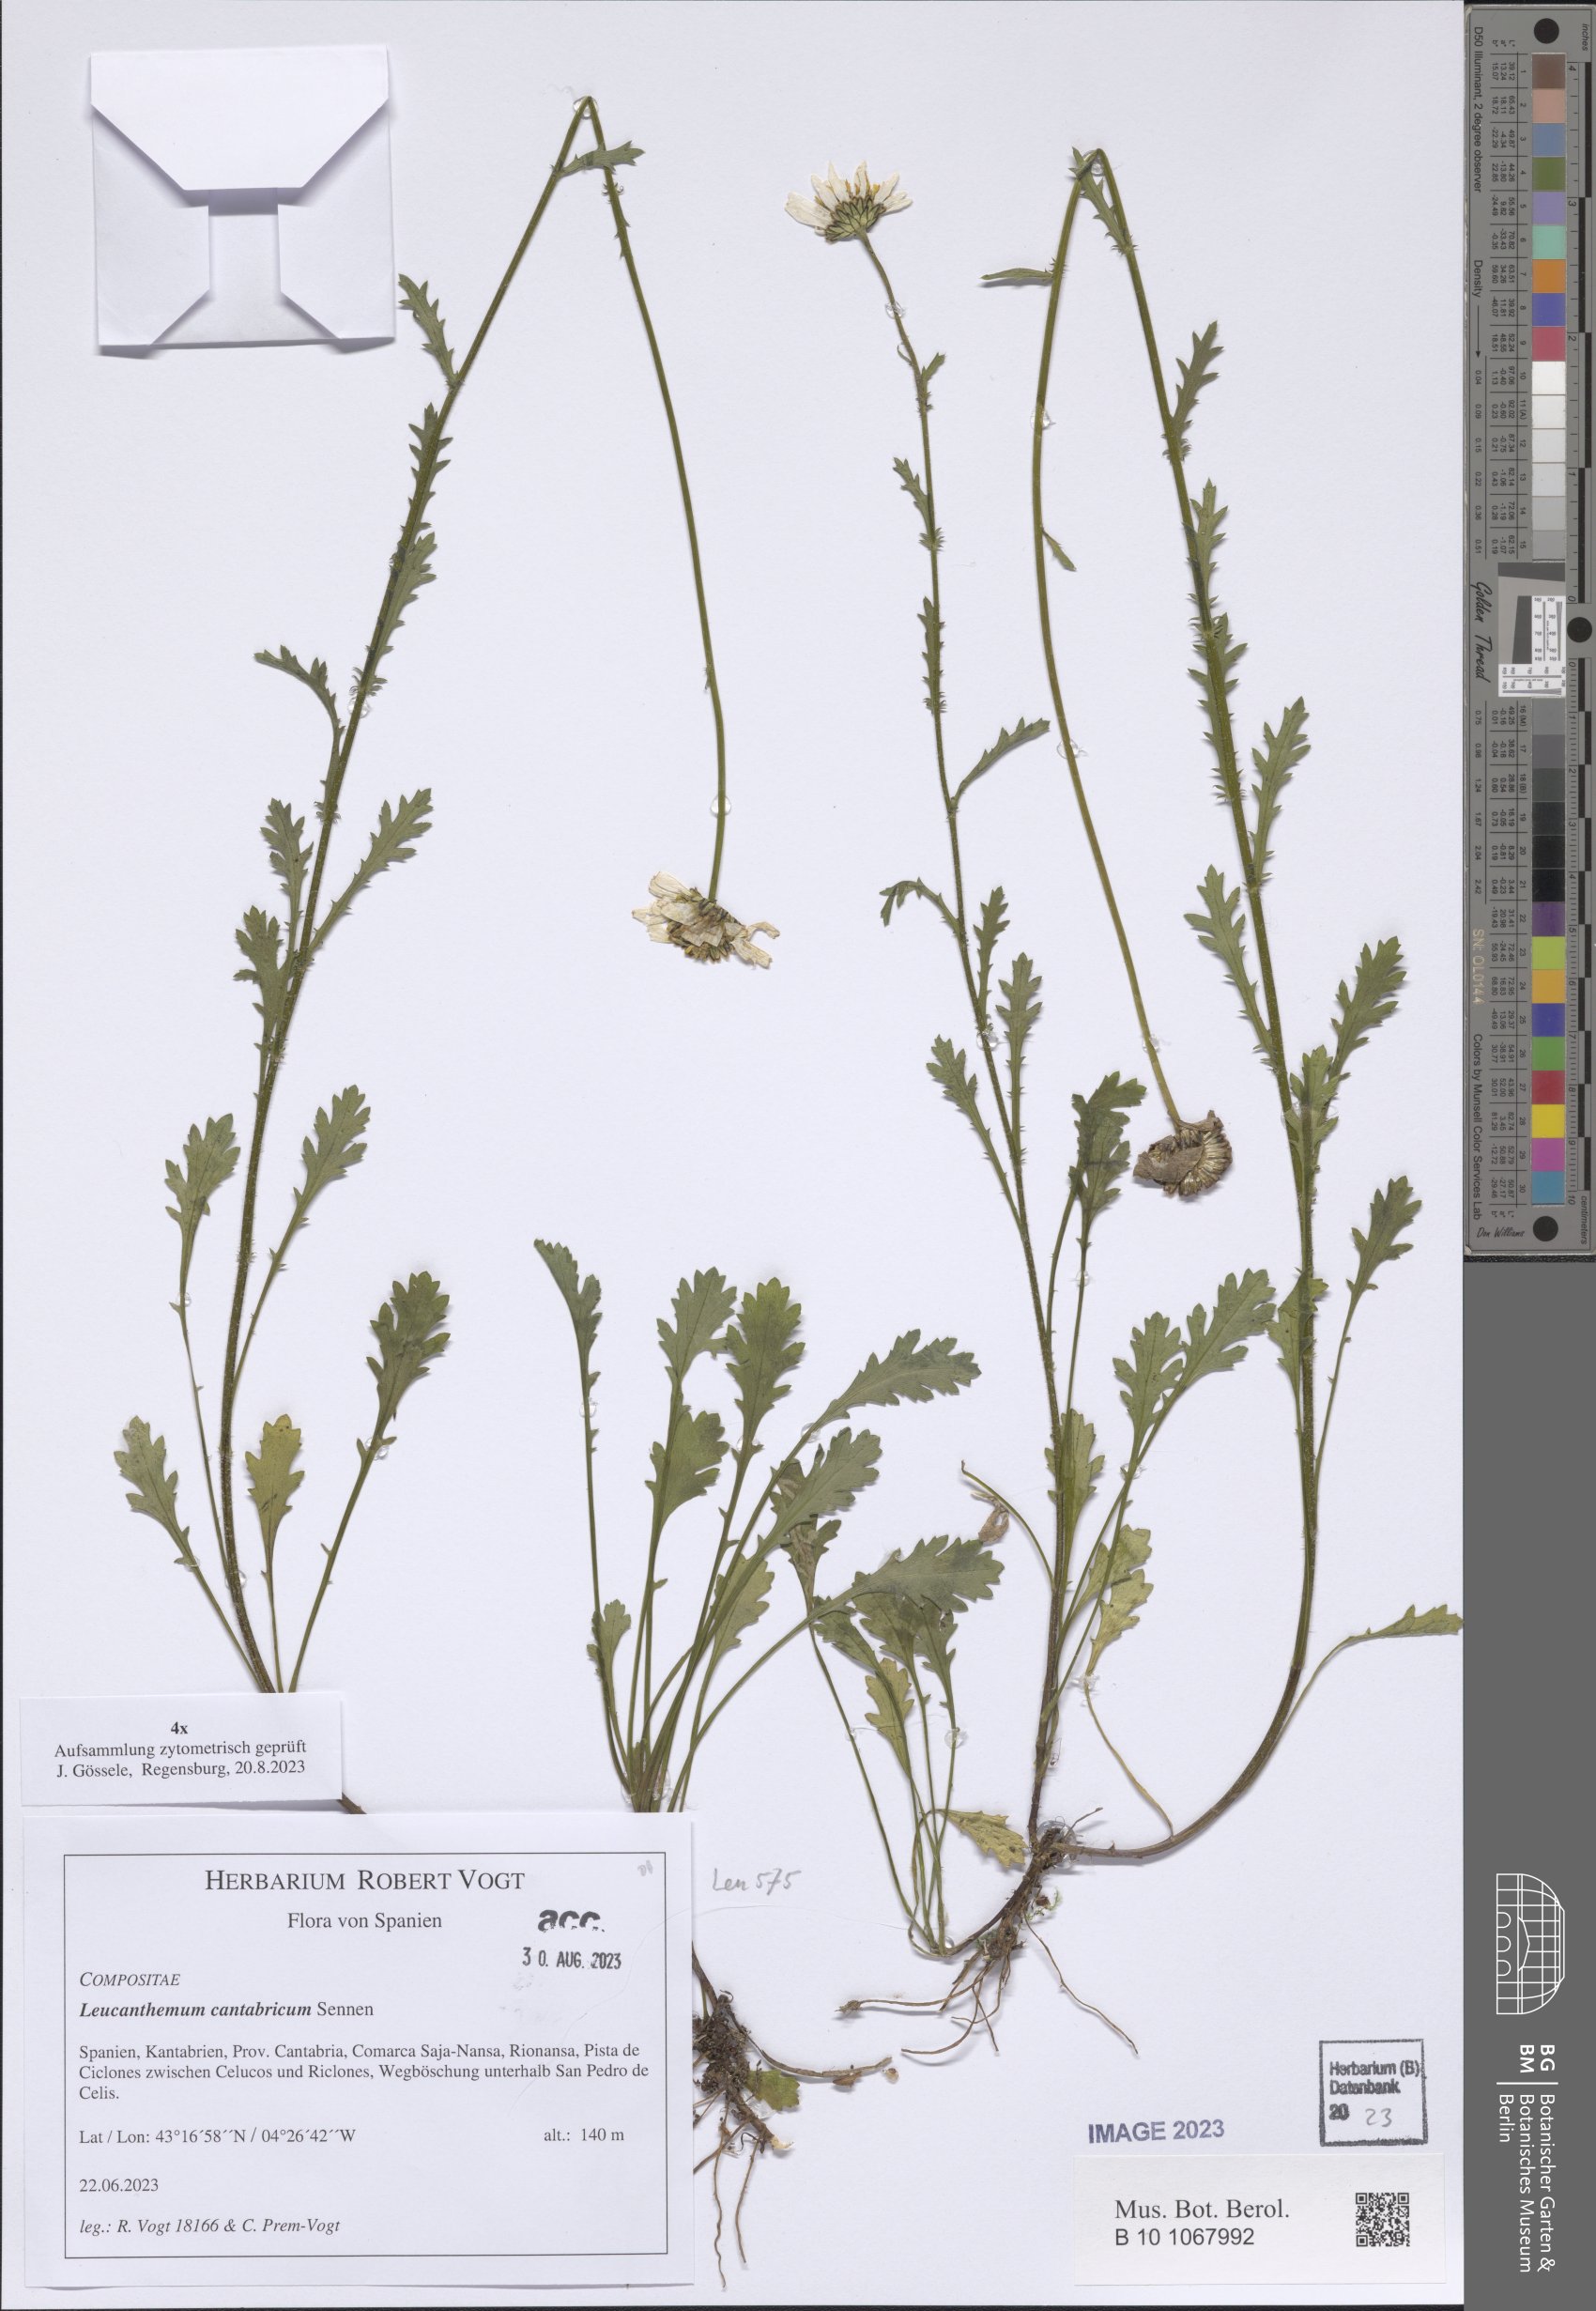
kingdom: Plantae
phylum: Tracheophyta
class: Magnoliopsida
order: Asterales
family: Asteraceae
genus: Leucanthemum
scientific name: Leucanthemum cantabricum
